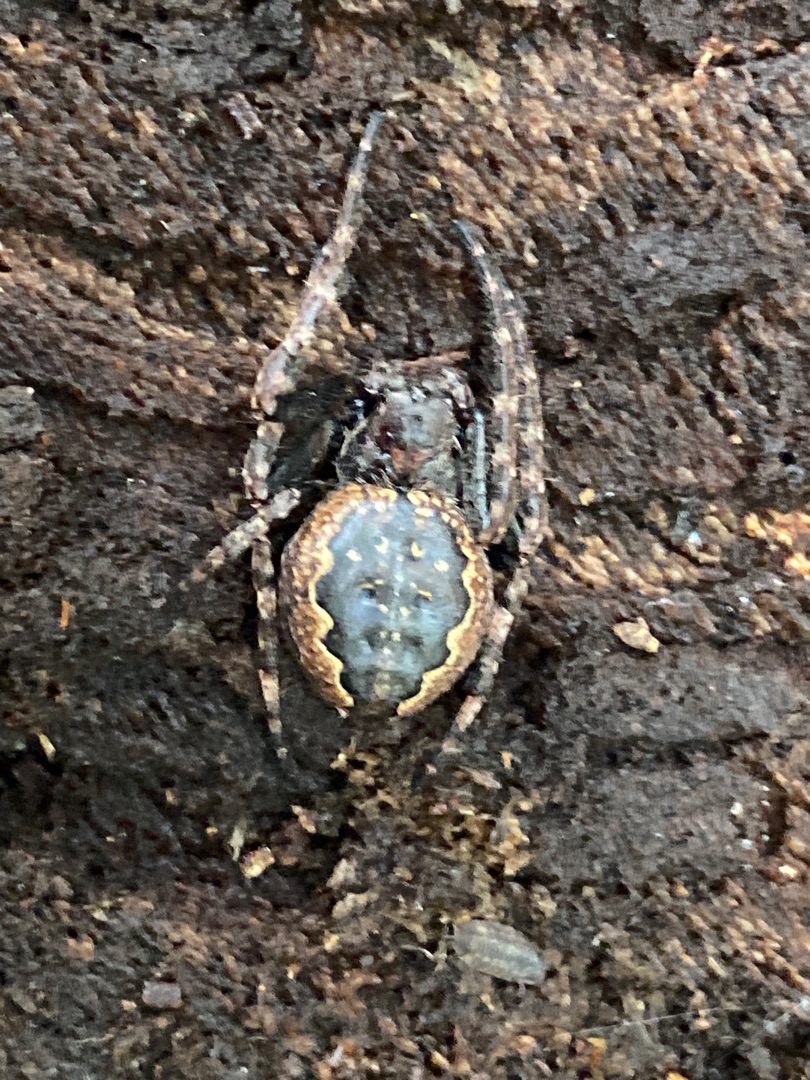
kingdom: Animalia
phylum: Arthropoda
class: Arachnida
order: Araneae
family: Araneidae
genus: Nuctenea
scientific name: Nuctenea umbratica
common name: Flad hjulspinder
